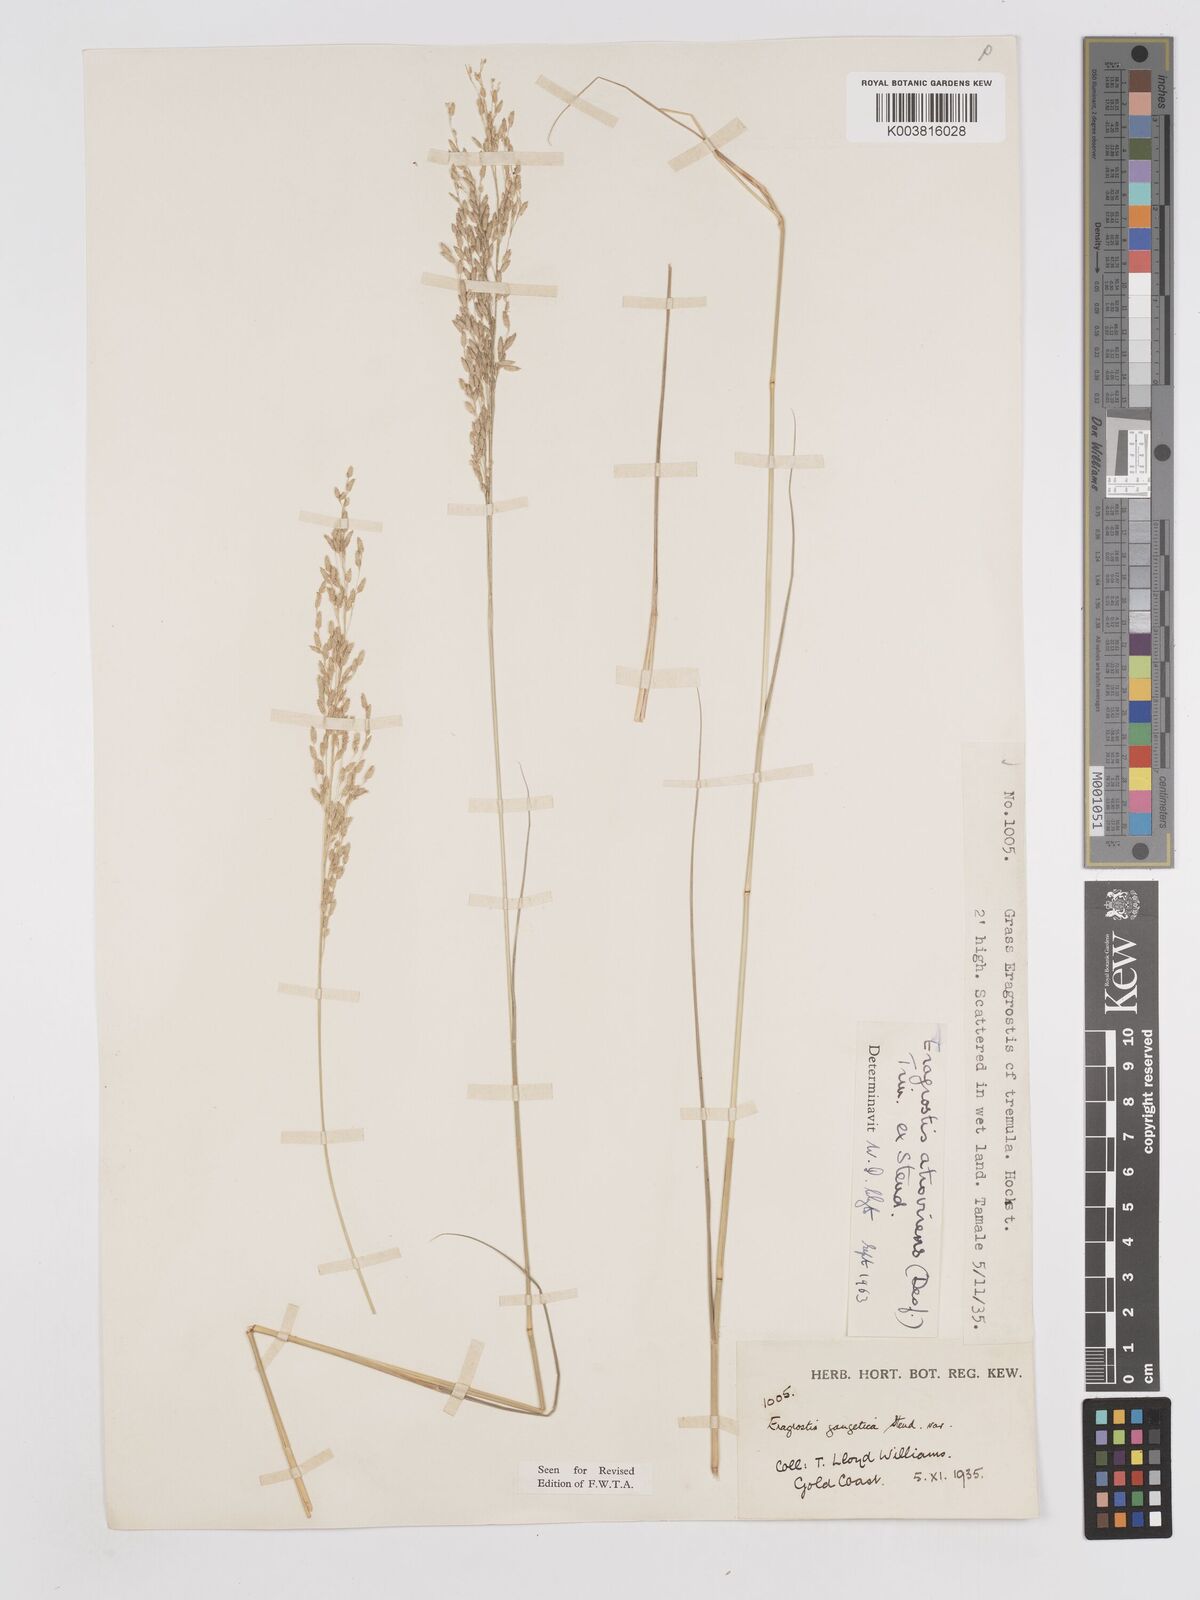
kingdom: Plantae
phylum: Tracheophyta
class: Liliopsida
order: Poales
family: Poaceae
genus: Eragrostis
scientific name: Eragrostis atrovirens
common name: Thalia lovegrass
